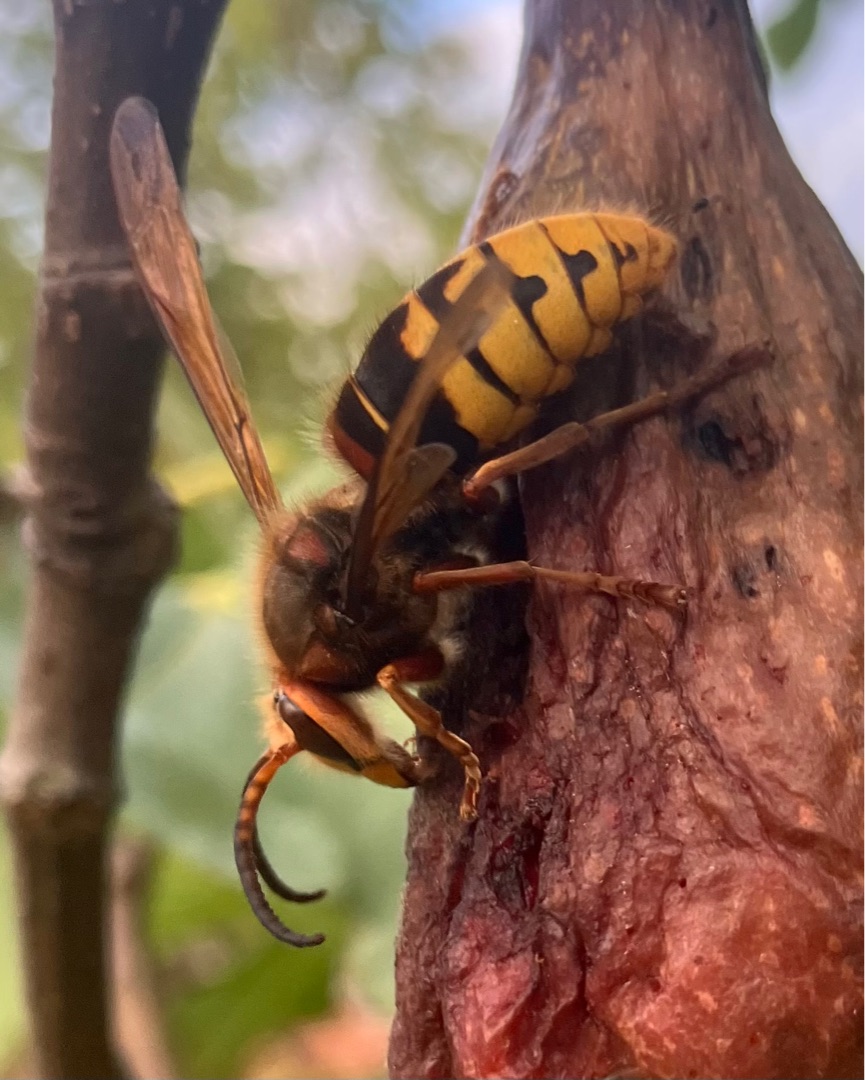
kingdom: Animalia
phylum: Arthropoda
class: Insecta
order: Hymenoptera
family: Vespidae
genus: Vespa
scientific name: Vespa crabro
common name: Stor gedehams
